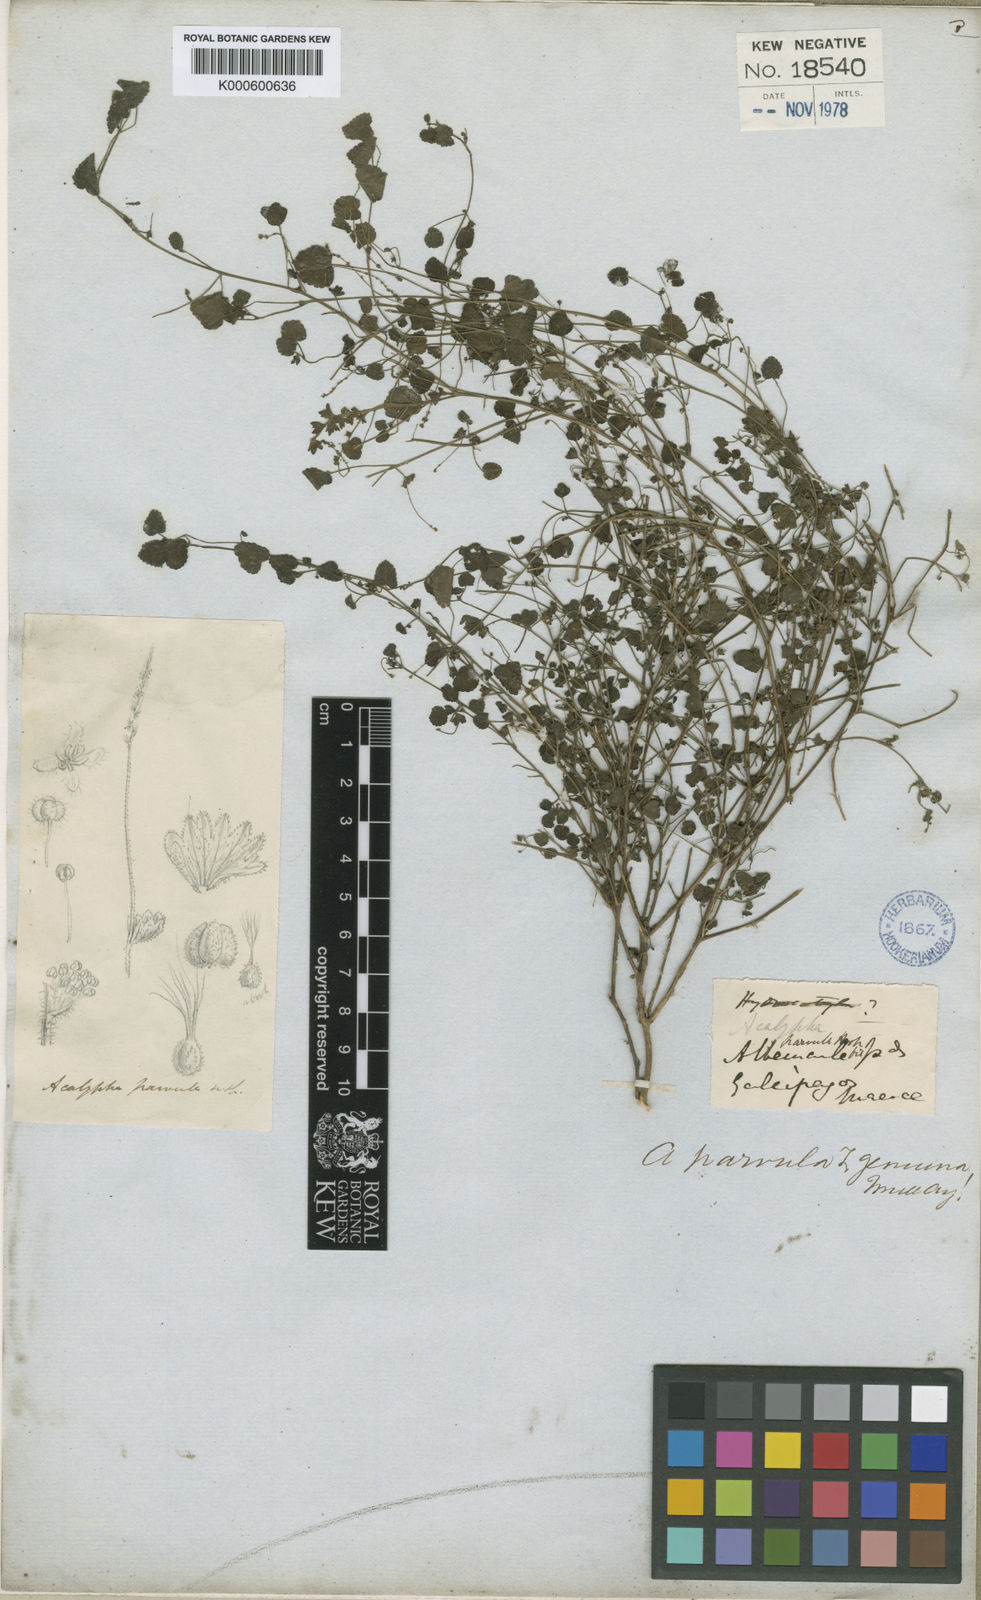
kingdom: Plantae
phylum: Tracheophyta
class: Magnoliopsida
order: Malpighiales
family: Euphorbiaceae
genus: Acalypha
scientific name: Acalypha parvula
